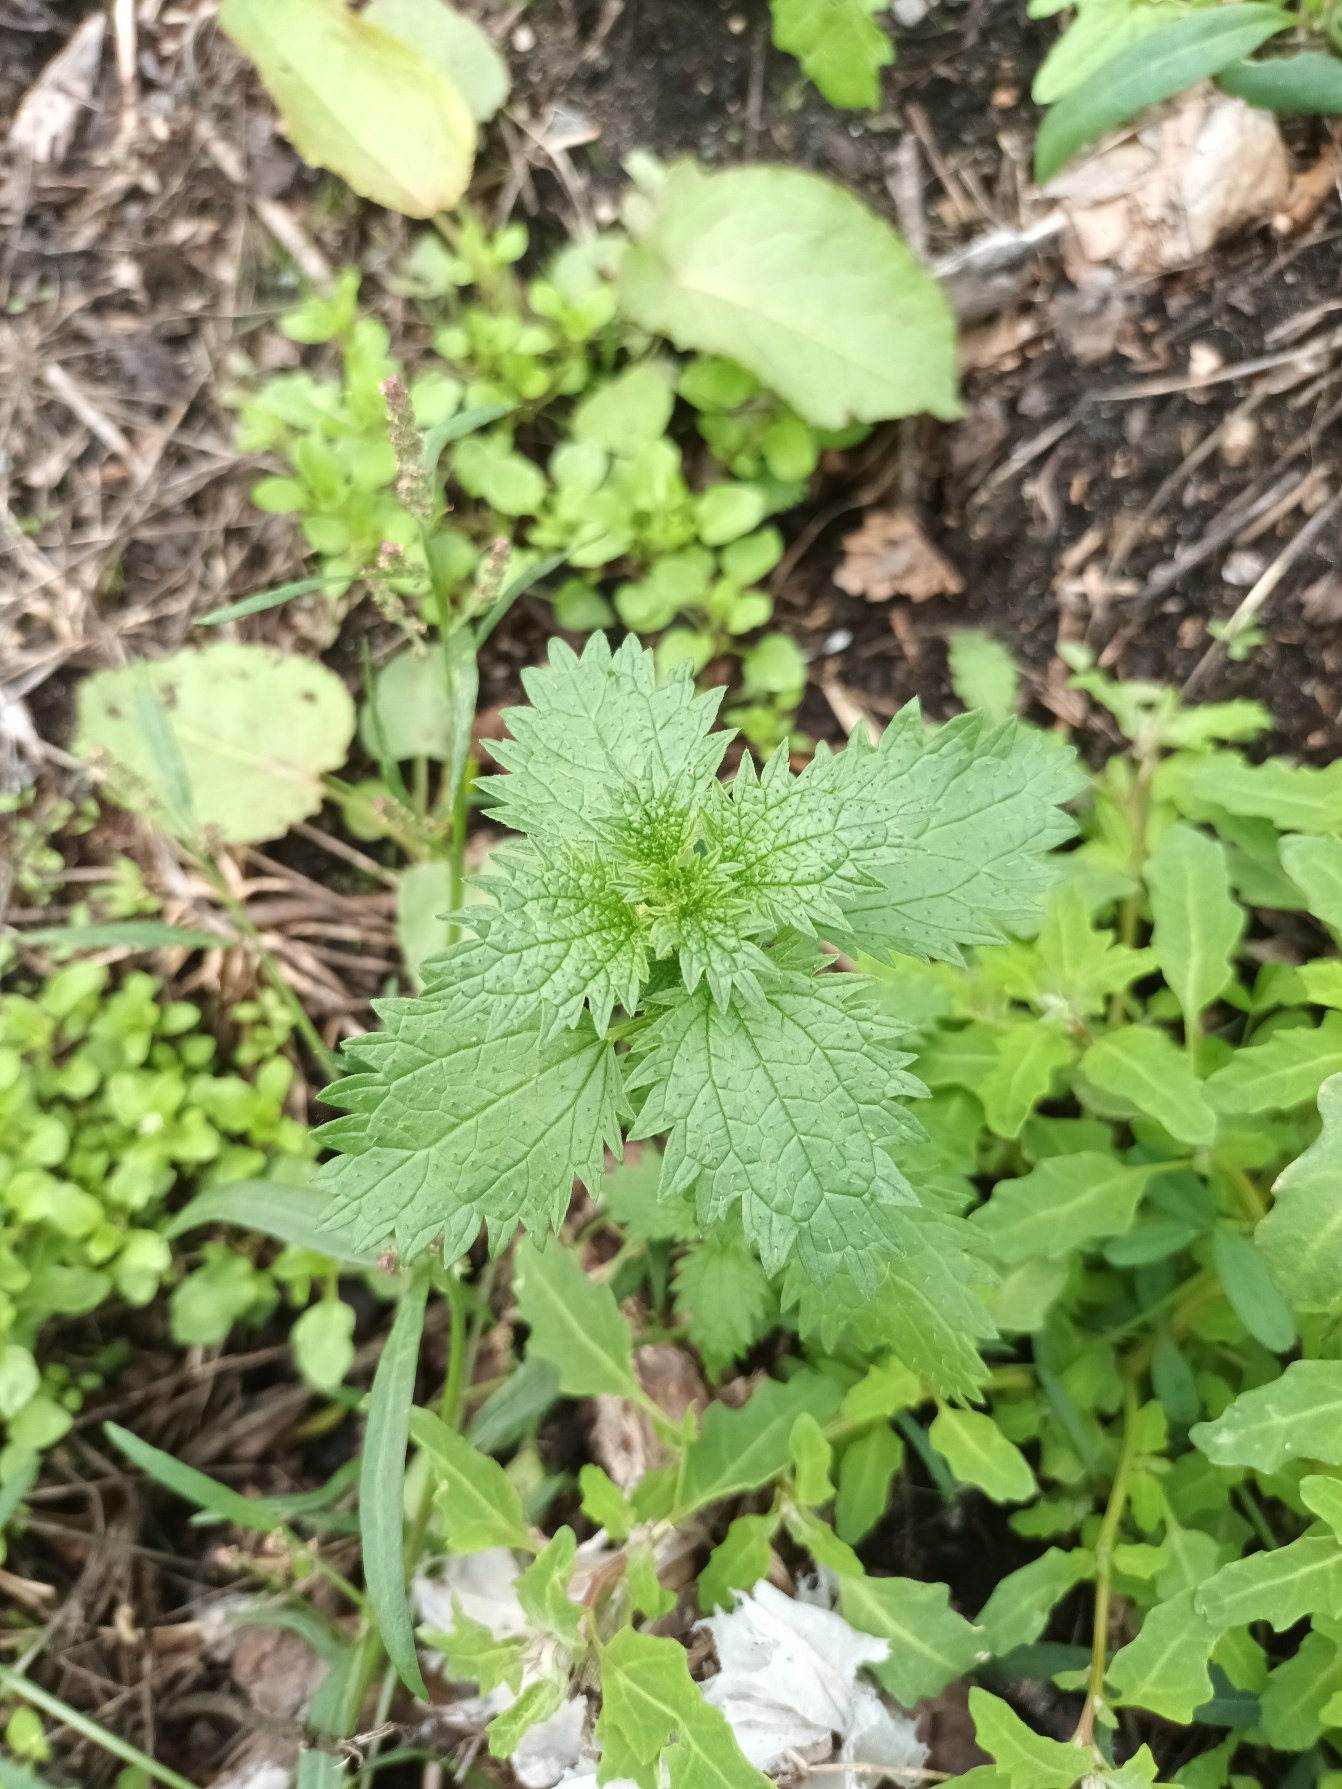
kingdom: Plantae
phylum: Tracheophyta
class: Magnoliopsida
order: Rosales
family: Urticaceae
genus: Urtica
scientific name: Urtica urens
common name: Liden nælde
